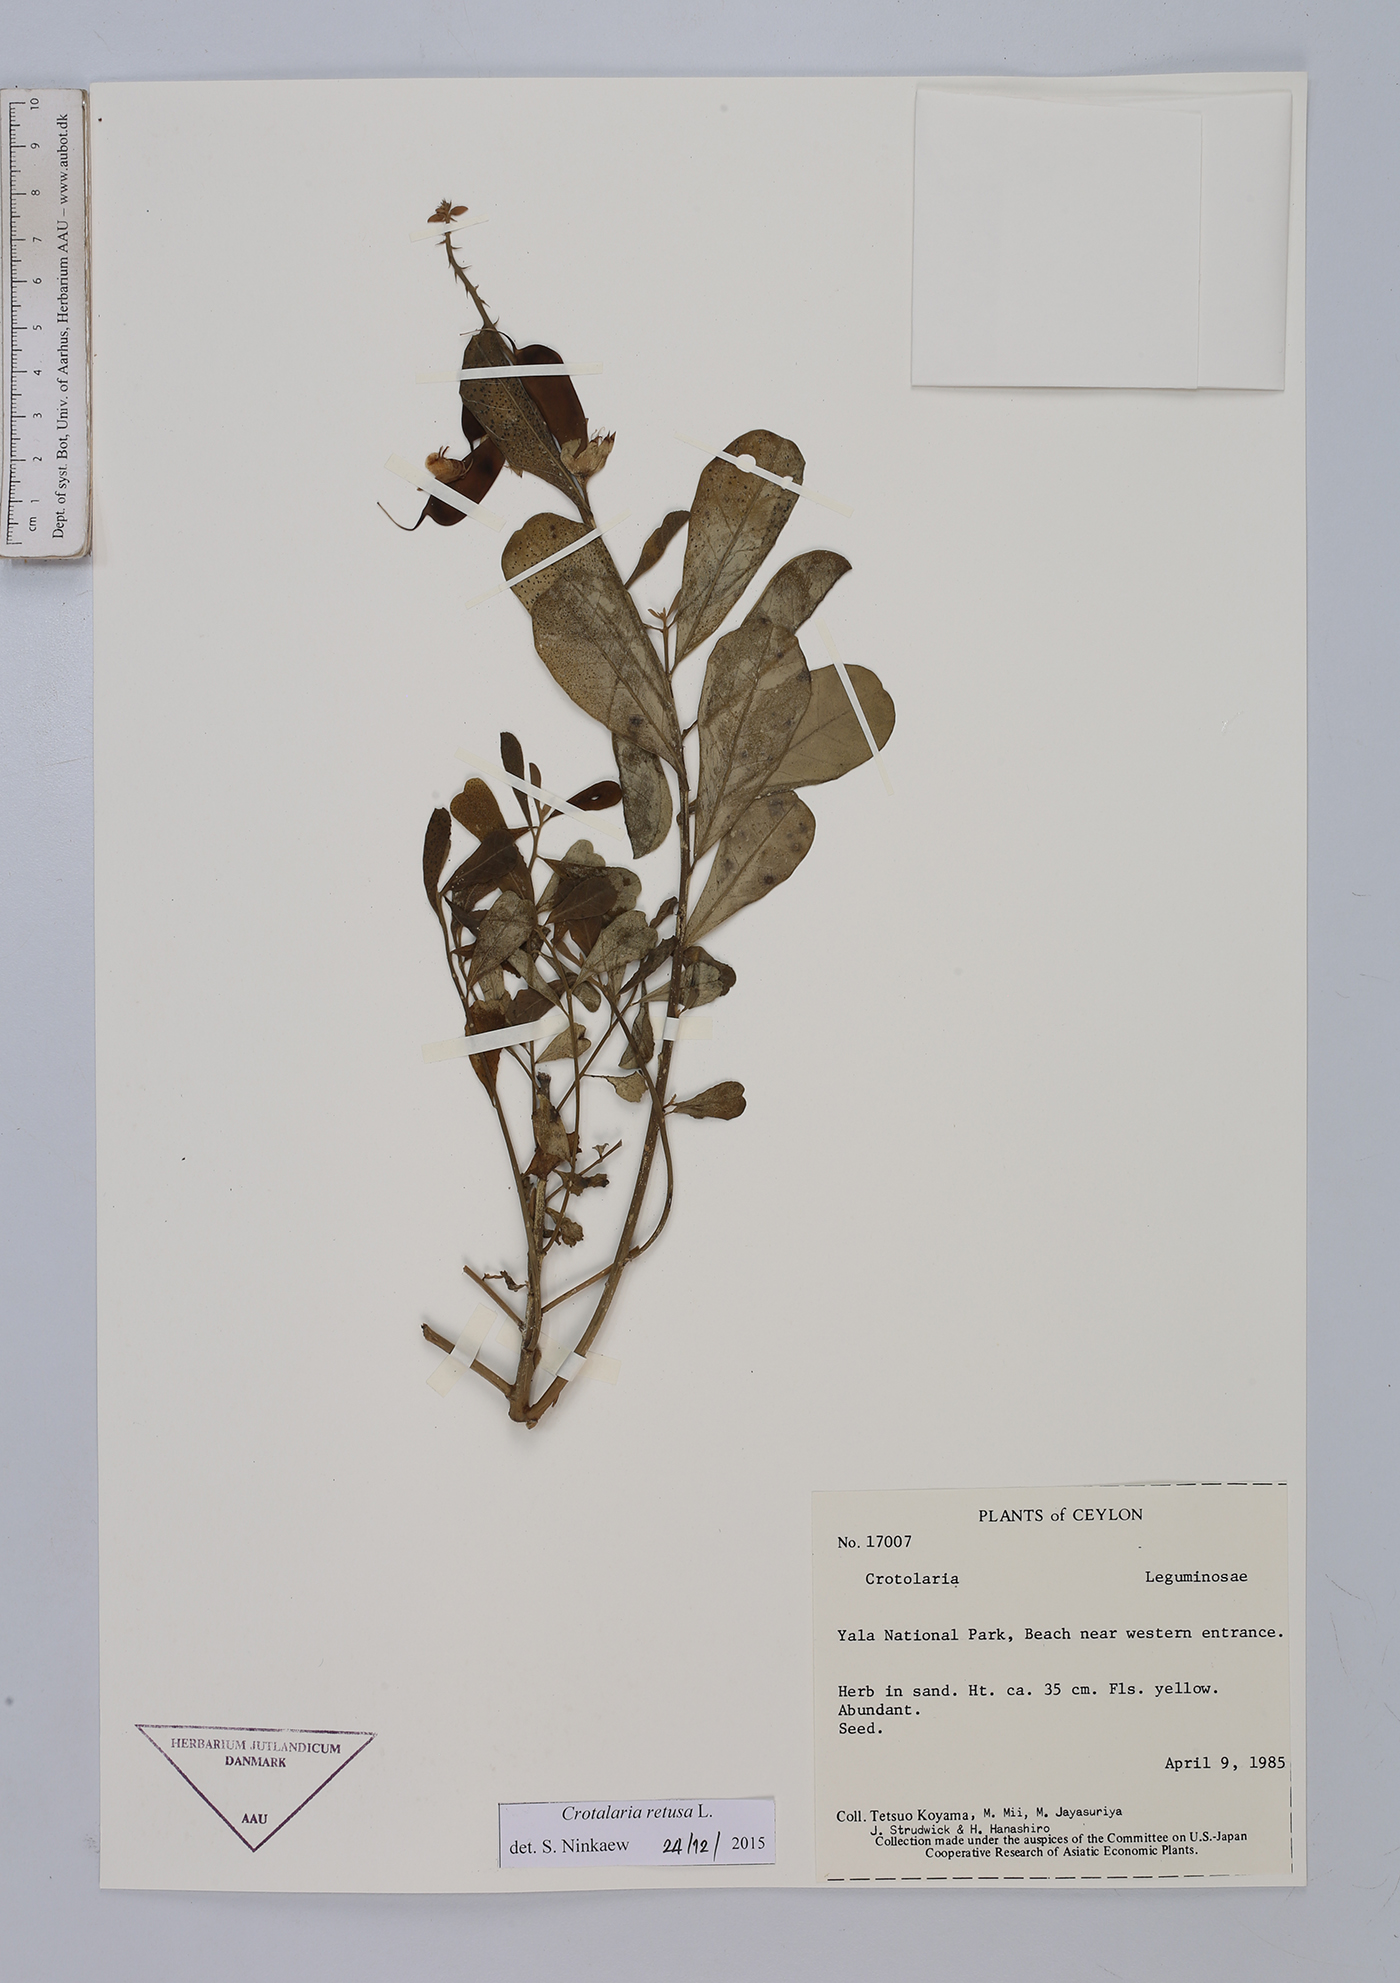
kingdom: Plantae
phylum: Tracheophyta
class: Magnoliopsida
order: Fabales
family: Fabaceae
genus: Crotalaria
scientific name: Crotalaria retusa
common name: Rattleweed
